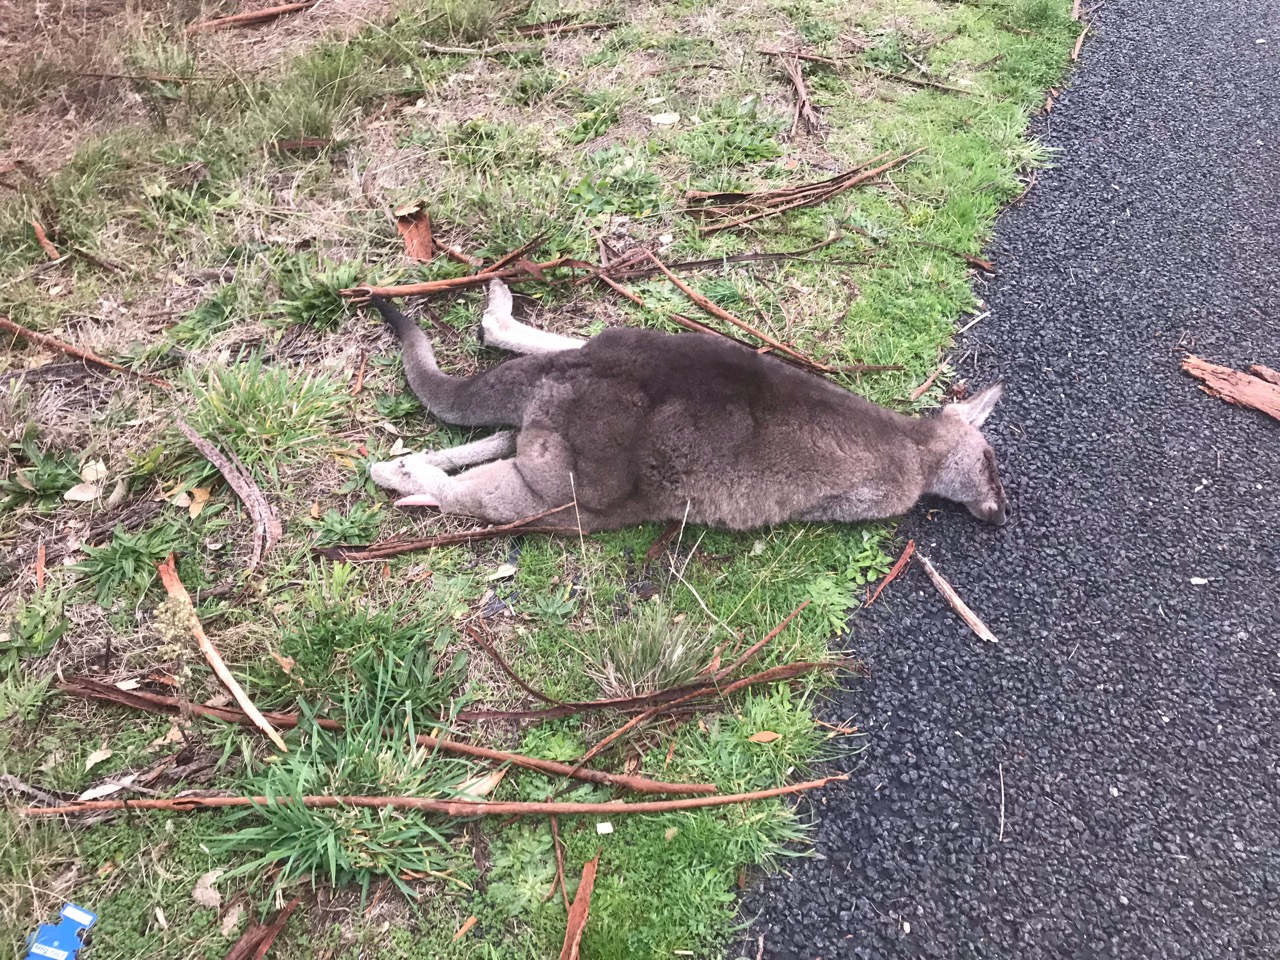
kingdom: Animalia
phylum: Chordata
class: Mammalia
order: Diprotodontia
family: Macropodidae
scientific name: Macropodidae
